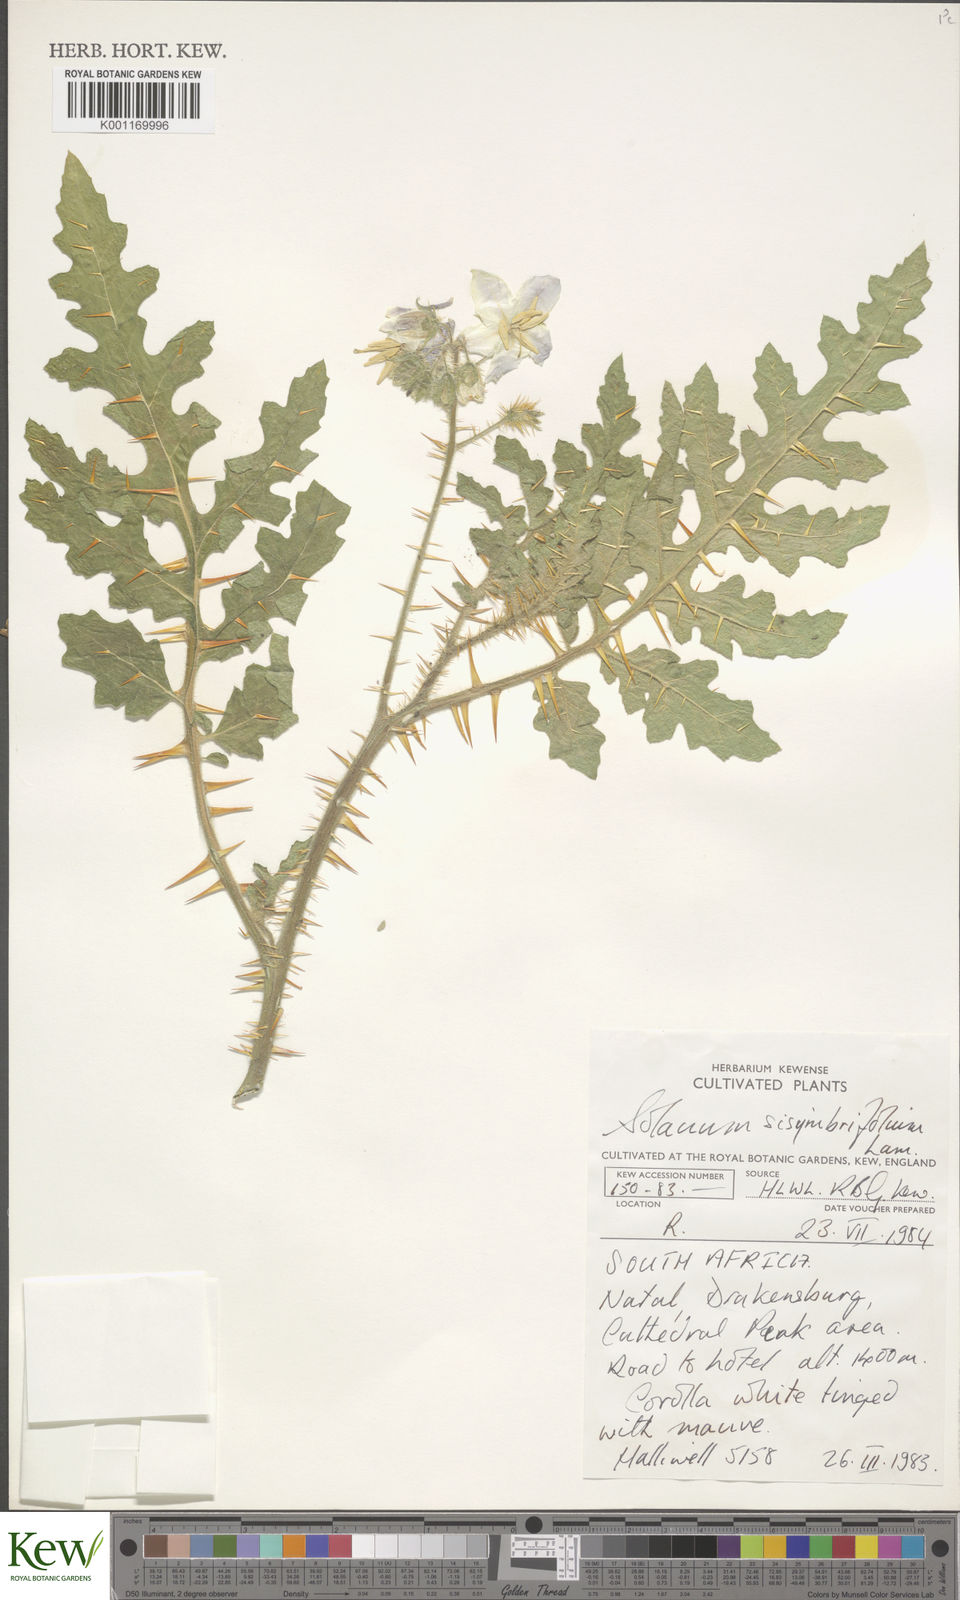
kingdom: Plantae
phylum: Tracheophyta
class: Magnoliopsida
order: Solanales
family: Solanaceae
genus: Solanum
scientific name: Solanum sisymbriifolium
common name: Red buffalo-bur
